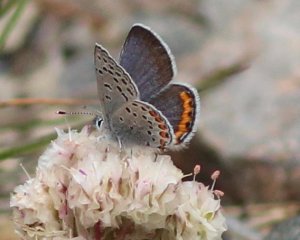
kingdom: Animalia
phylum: Arthropoda
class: Insecta
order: Lepidoptera
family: Lycaenidae
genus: Plebejus
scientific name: Plebejus acmon
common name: Acmon Blue
